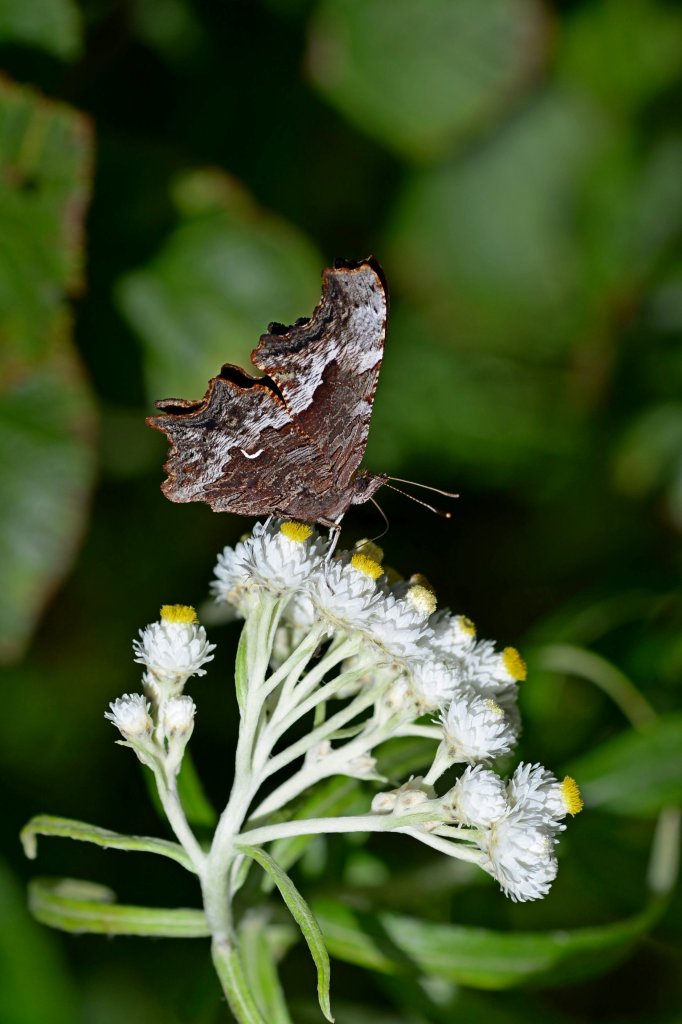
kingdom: Animalia
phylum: Arthropoda
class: Insecta
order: Lepidoptera
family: Nymphalidae
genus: Polygonia
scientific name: Polygonia gracilis
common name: Hoary Comma
